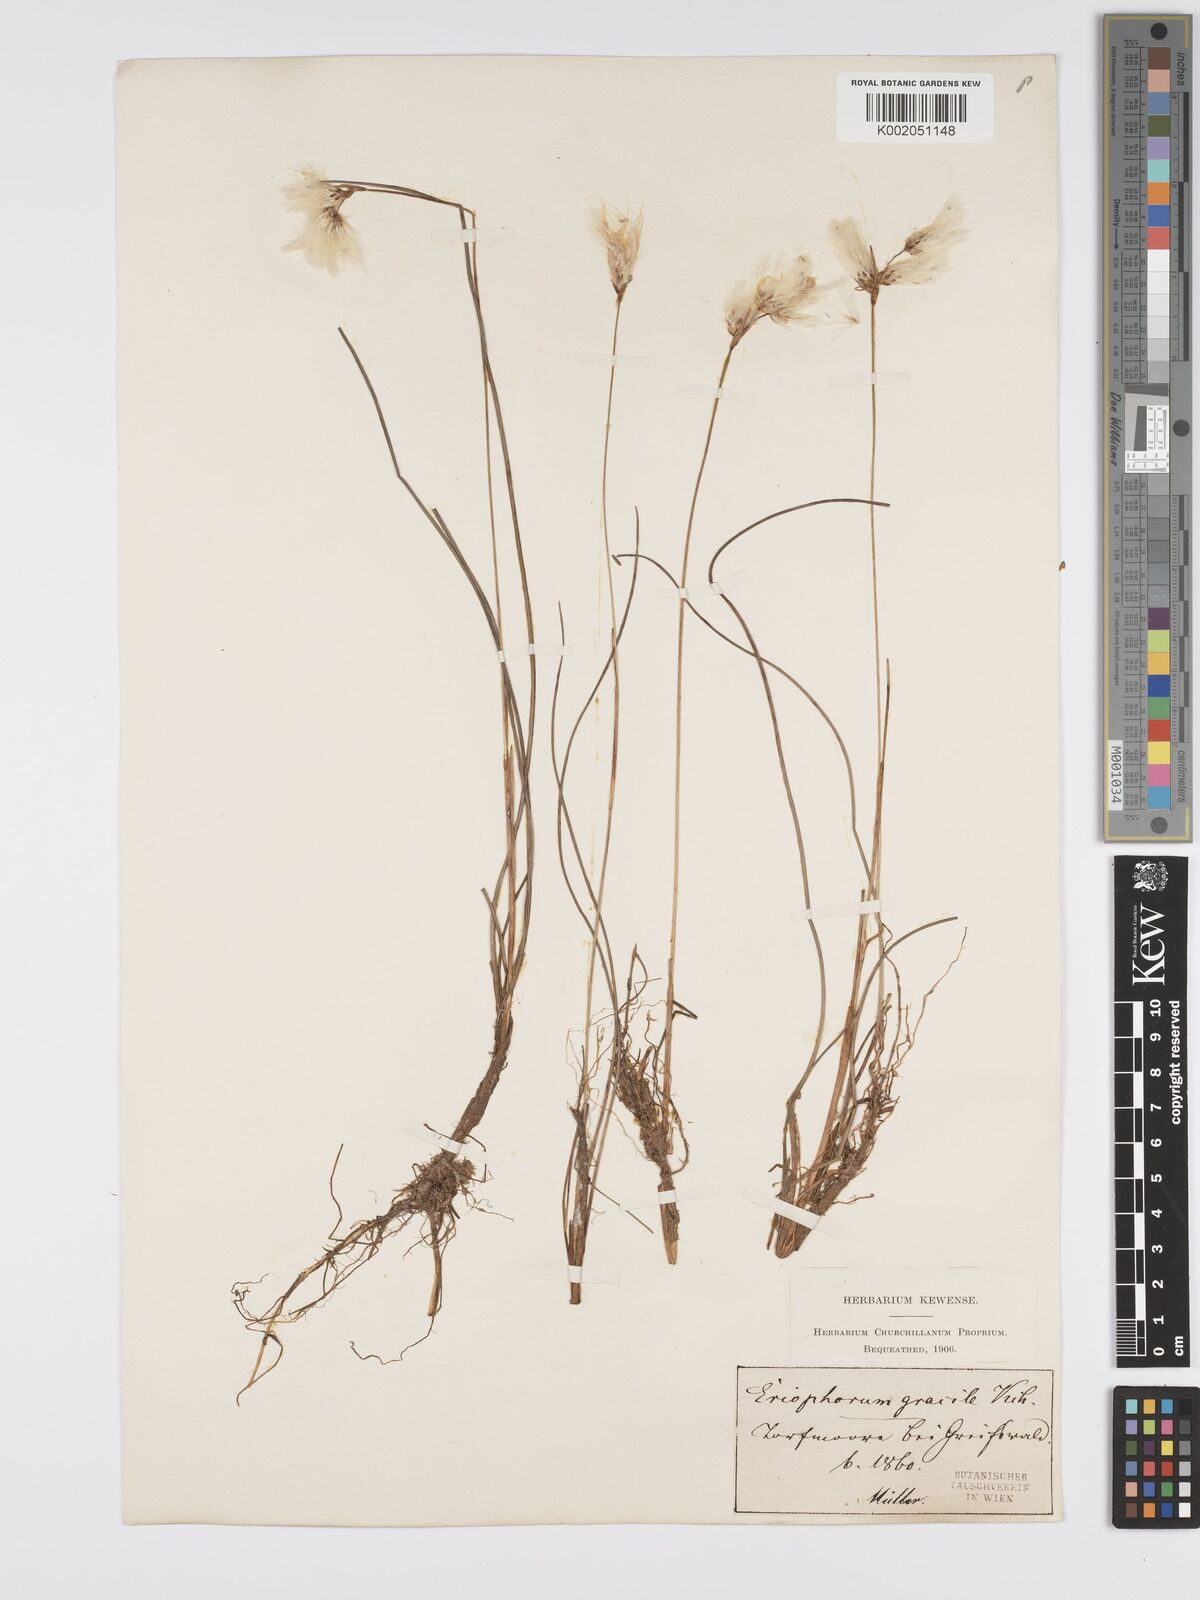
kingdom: Plantae
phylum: Tracheophyta
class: Liliopsida
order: Poales
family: Cyperaceae
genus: Eriophorum
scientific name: Eriophorum gracile
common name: Slender cottongrass
